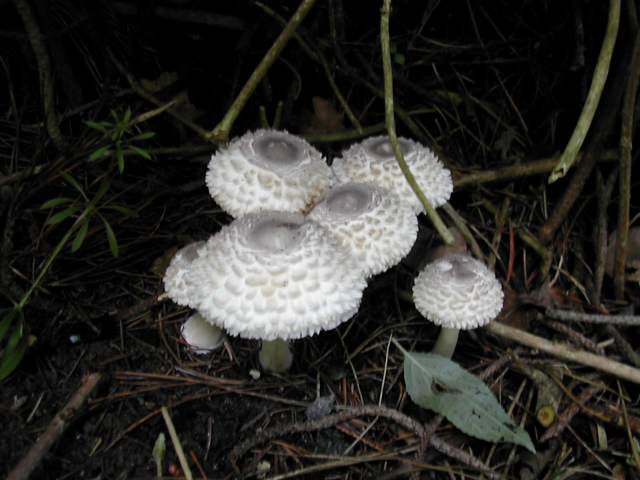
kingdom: Fungi
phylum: Basidiomycota
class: Agaricomycetes
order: Agaricales
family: Agaricaceae
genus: Leucoagaricus
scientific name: Leucoagaricus nympharum
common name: gran-silkehat
